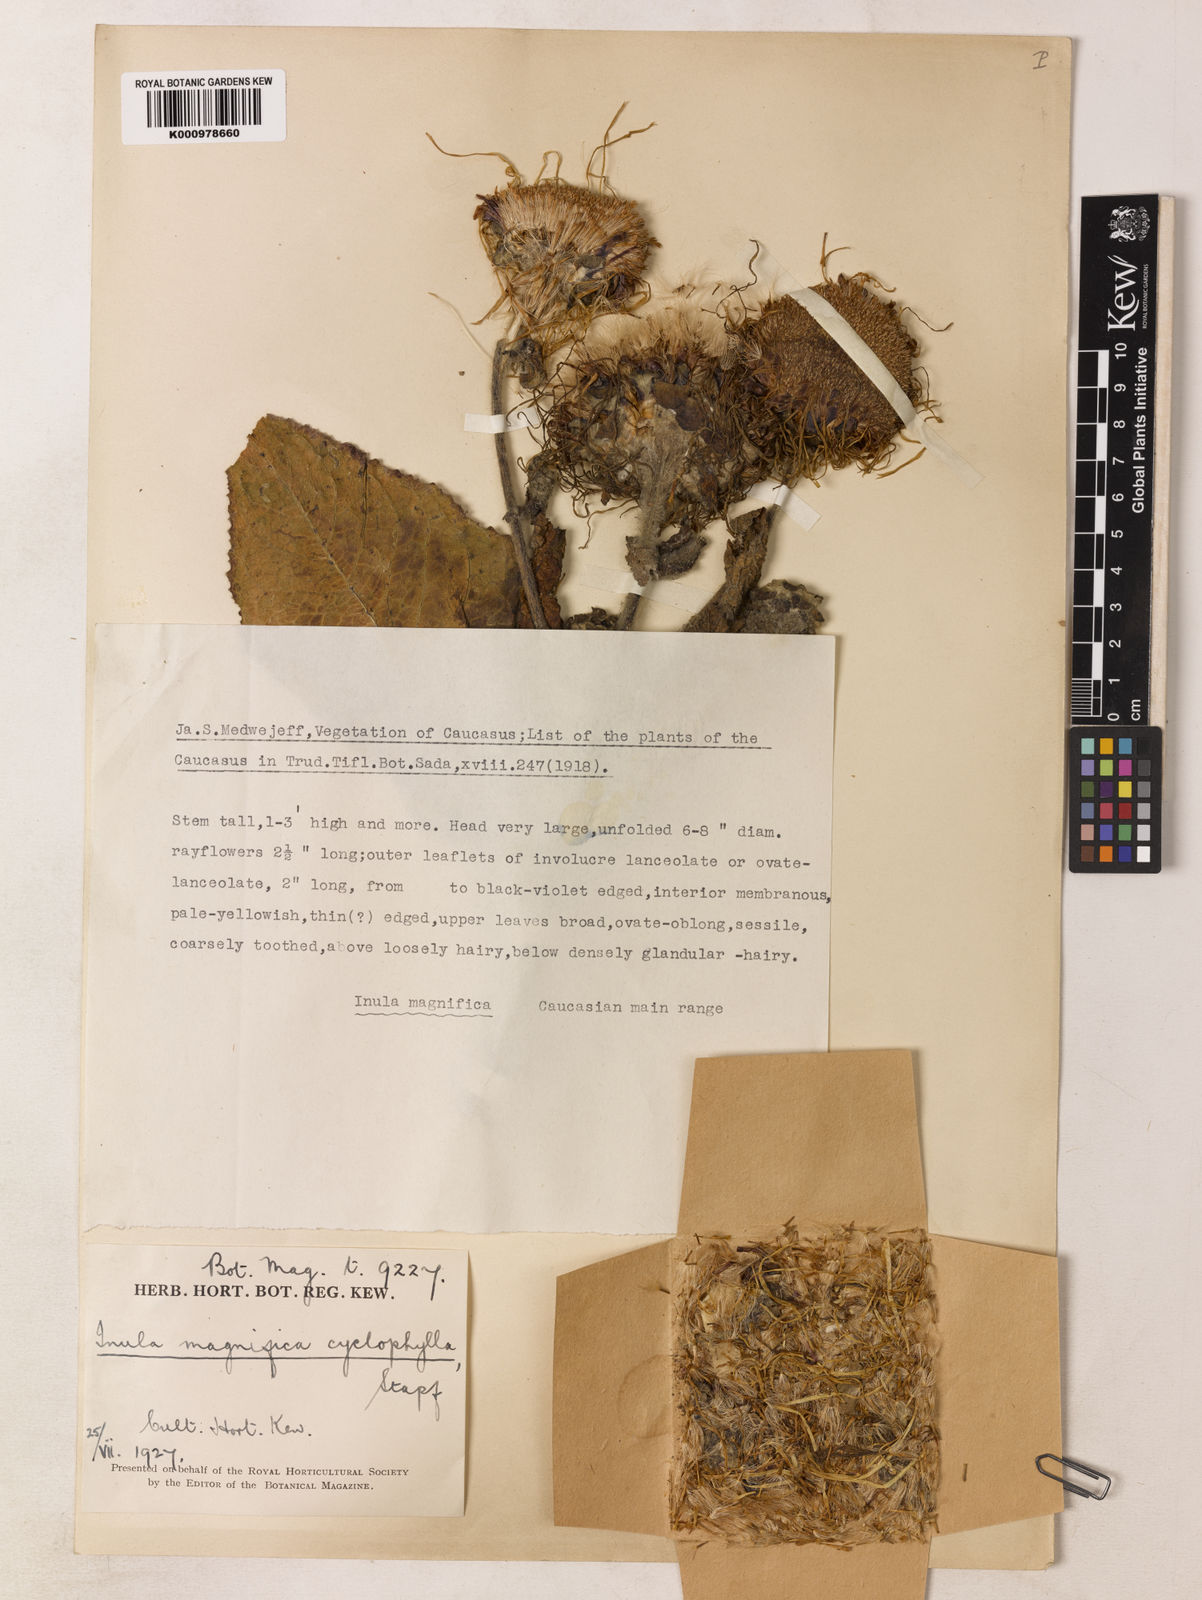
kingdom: Plantae
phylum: Tracheophyta
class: Magnoliopsida
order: Asterales
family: Asteraceae
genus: Inula
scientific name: Inula magnifica
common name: Giant fleabane
